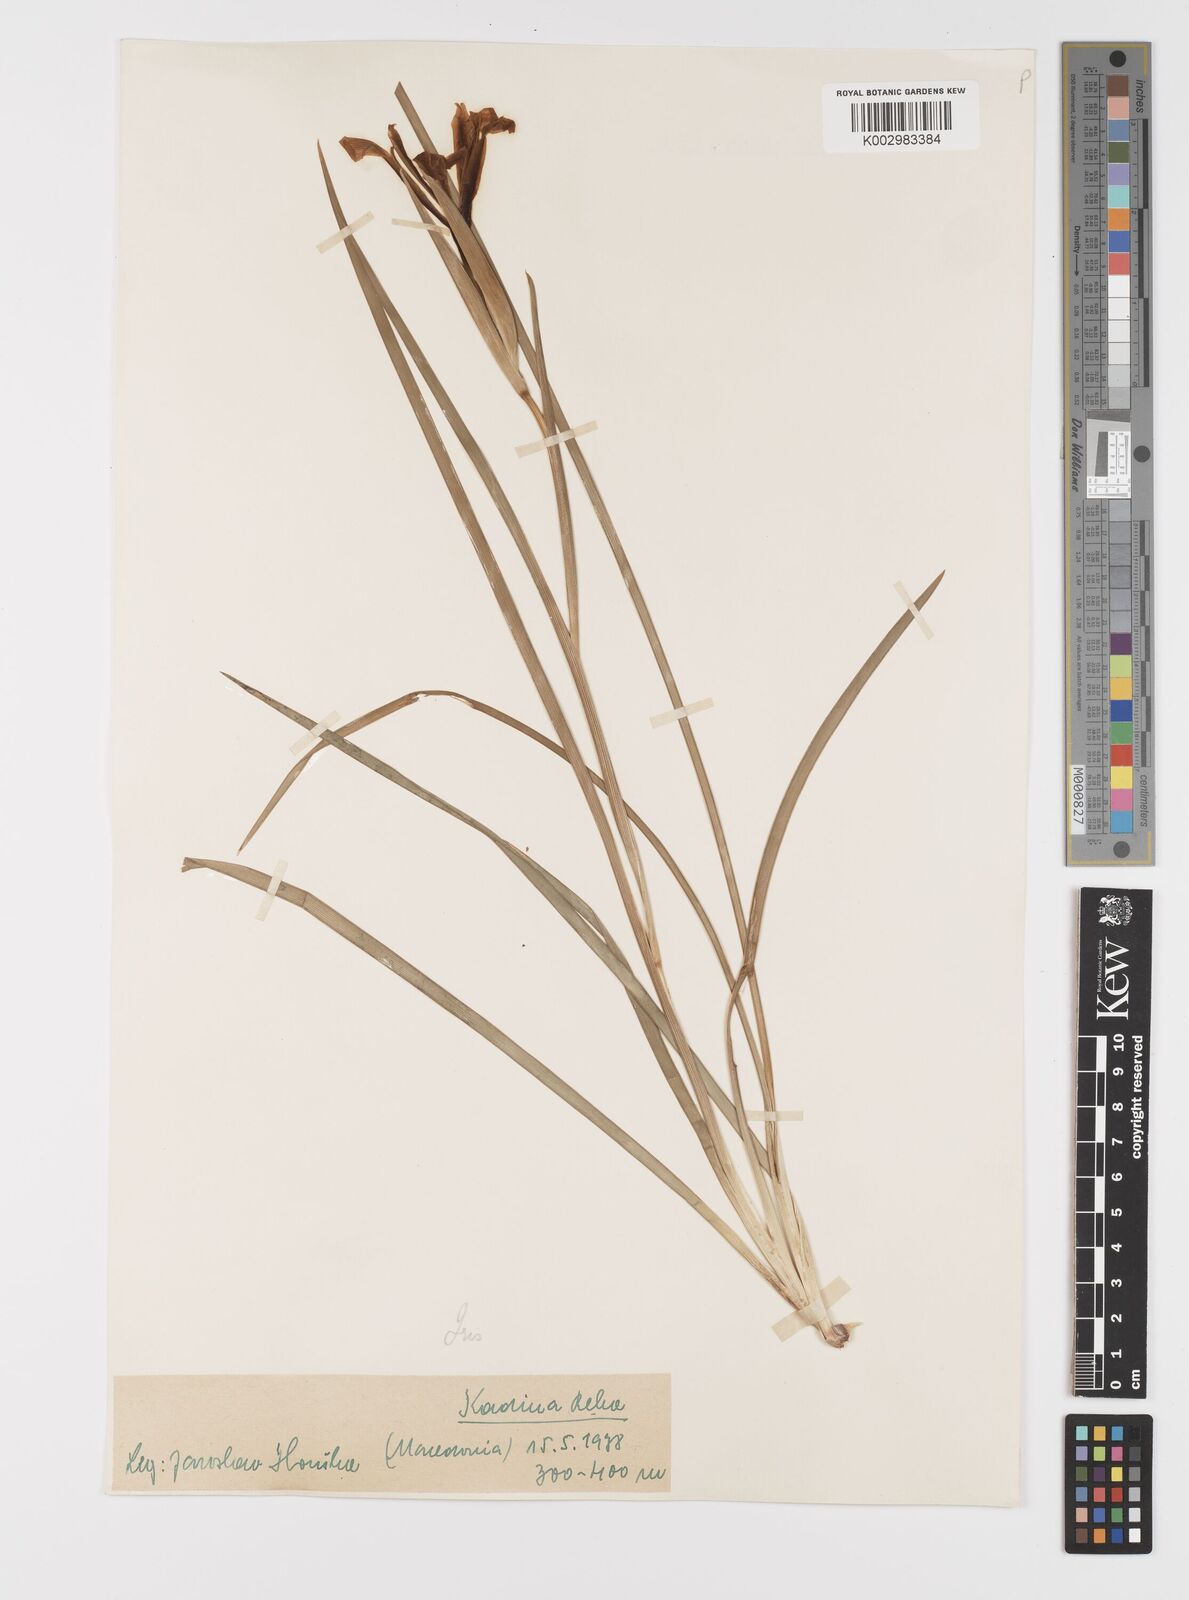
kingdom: Plantae
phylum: Tracheophyta
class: Liliopsida
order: Asparagales
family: Iridaceae
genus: Iris
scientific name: Iris sintenisii
